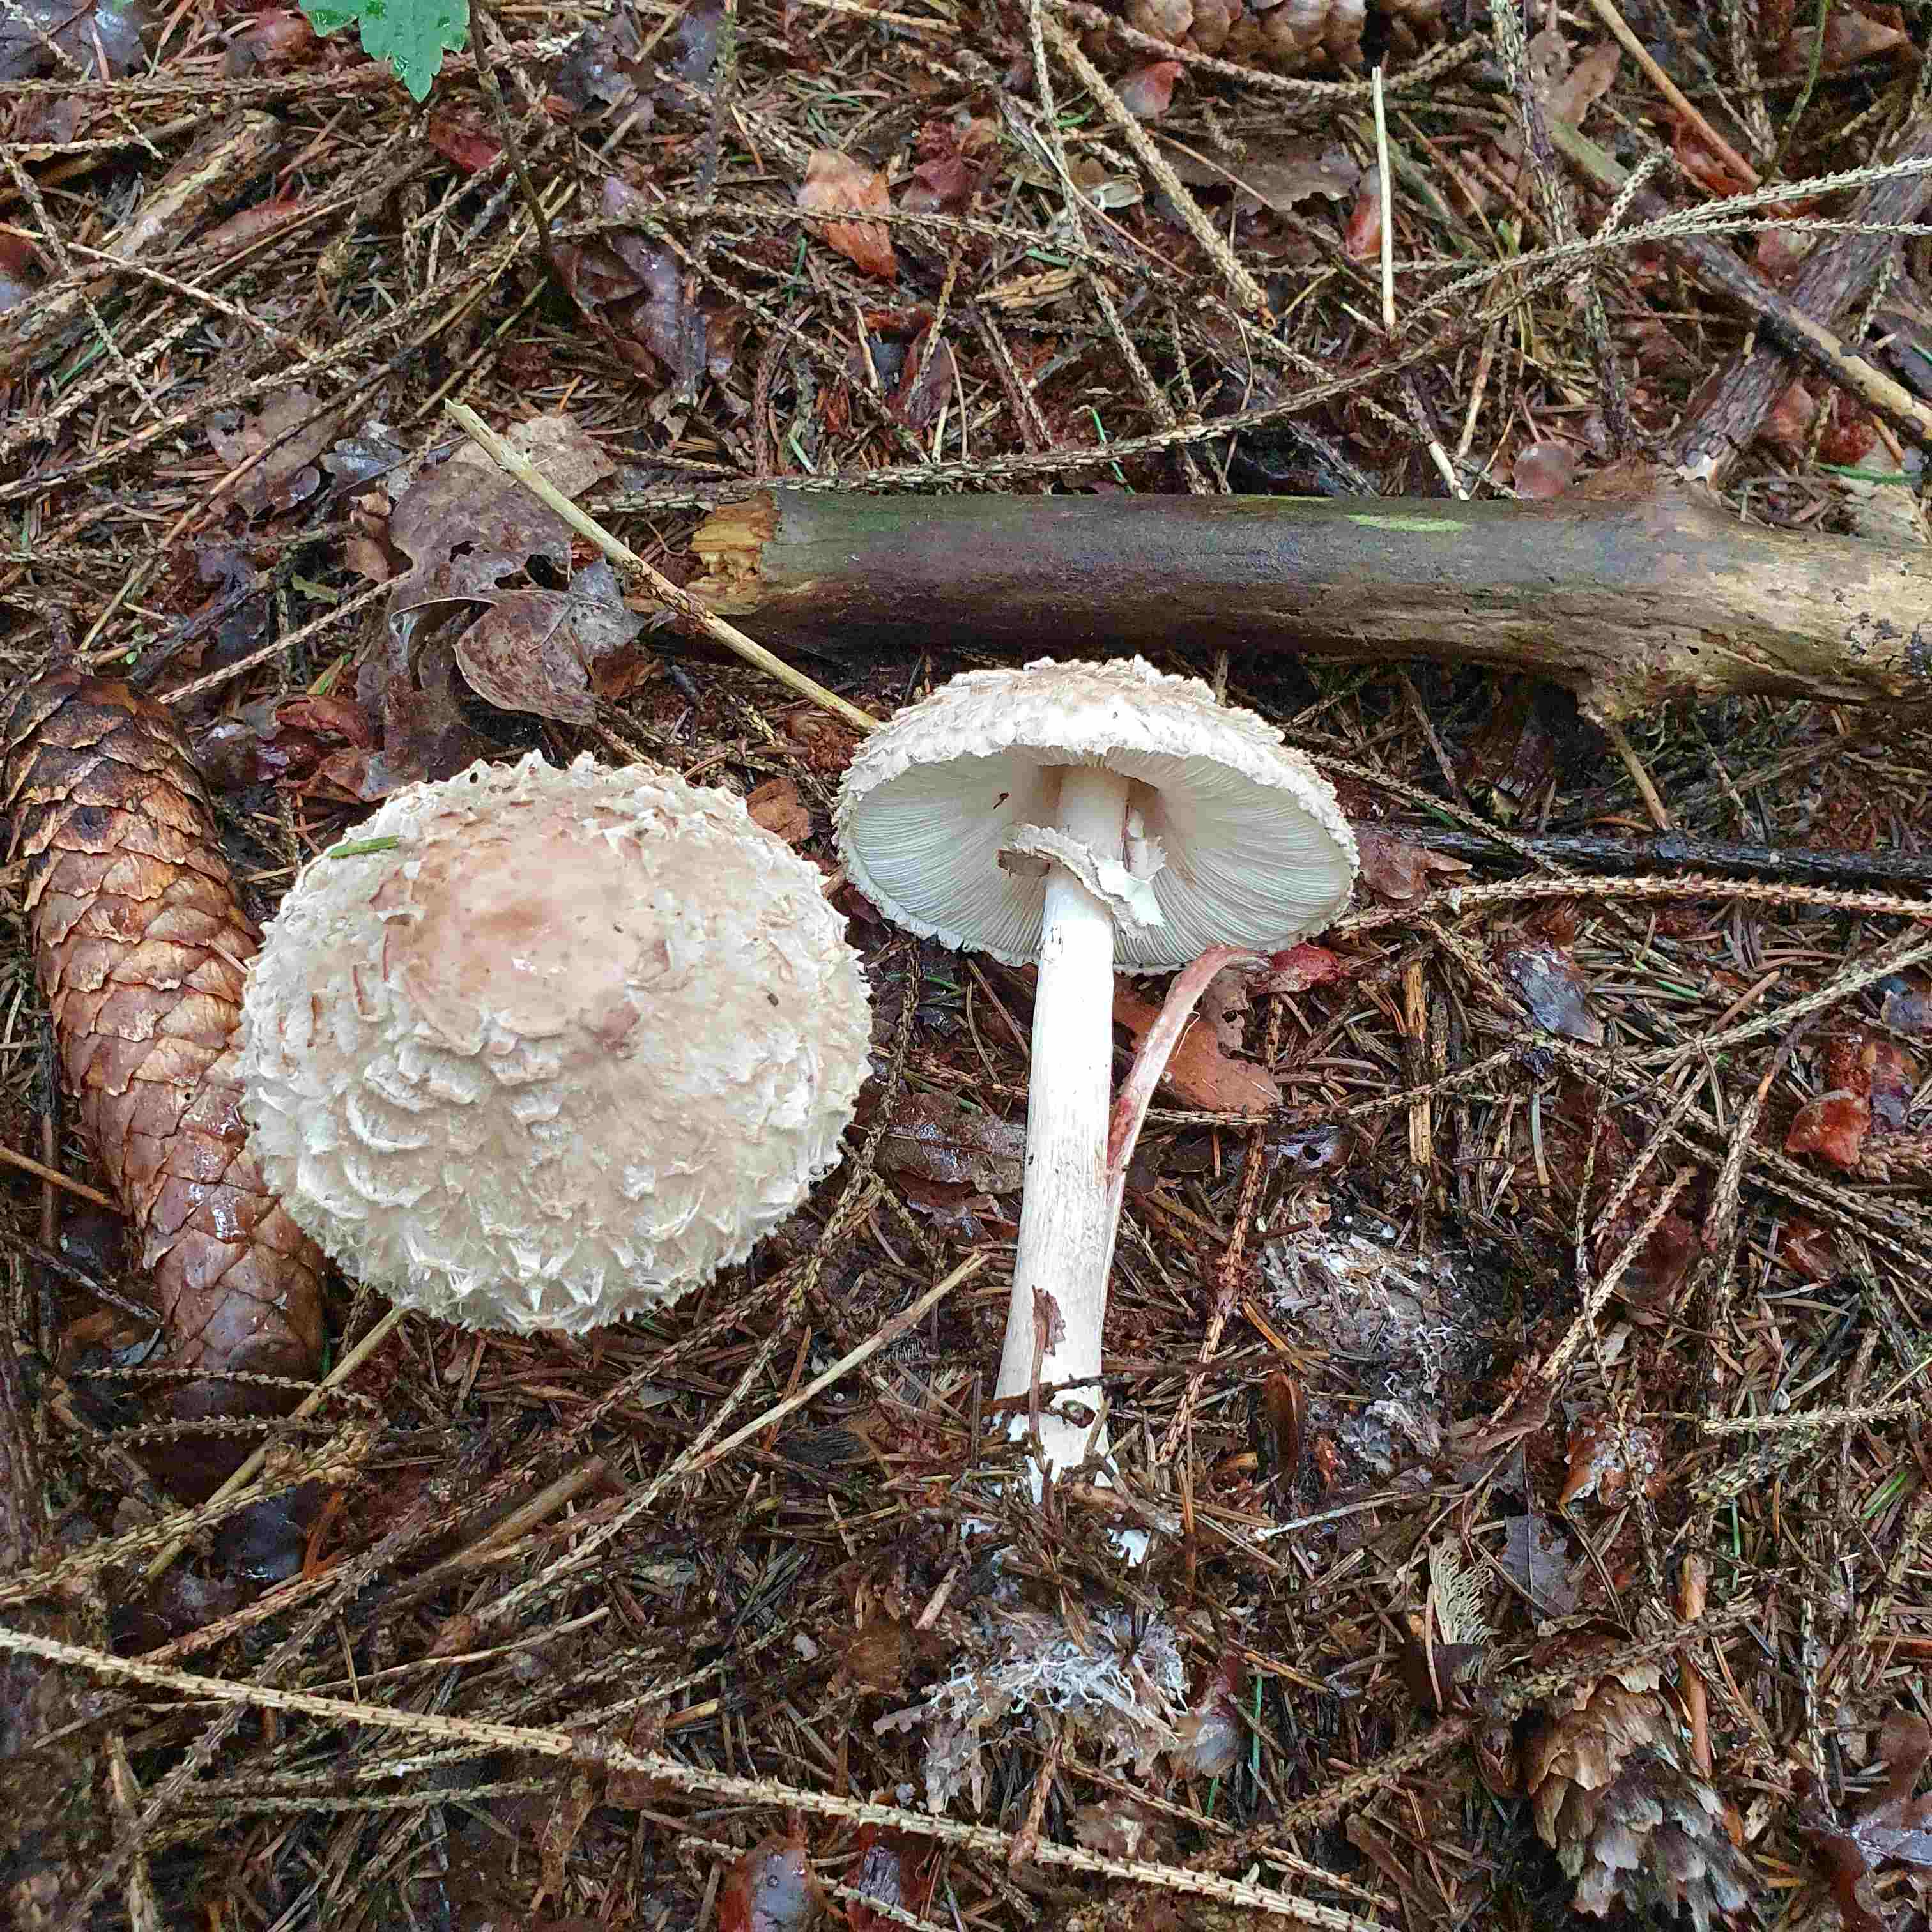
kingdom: Fungi
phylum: Basidiomycota
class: Agaricomycetes
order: Agaricales
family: Agaricaceae
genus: Chlorophyllum
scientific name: Chlorophyllum olivieri
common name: almindelig rabarberhat
